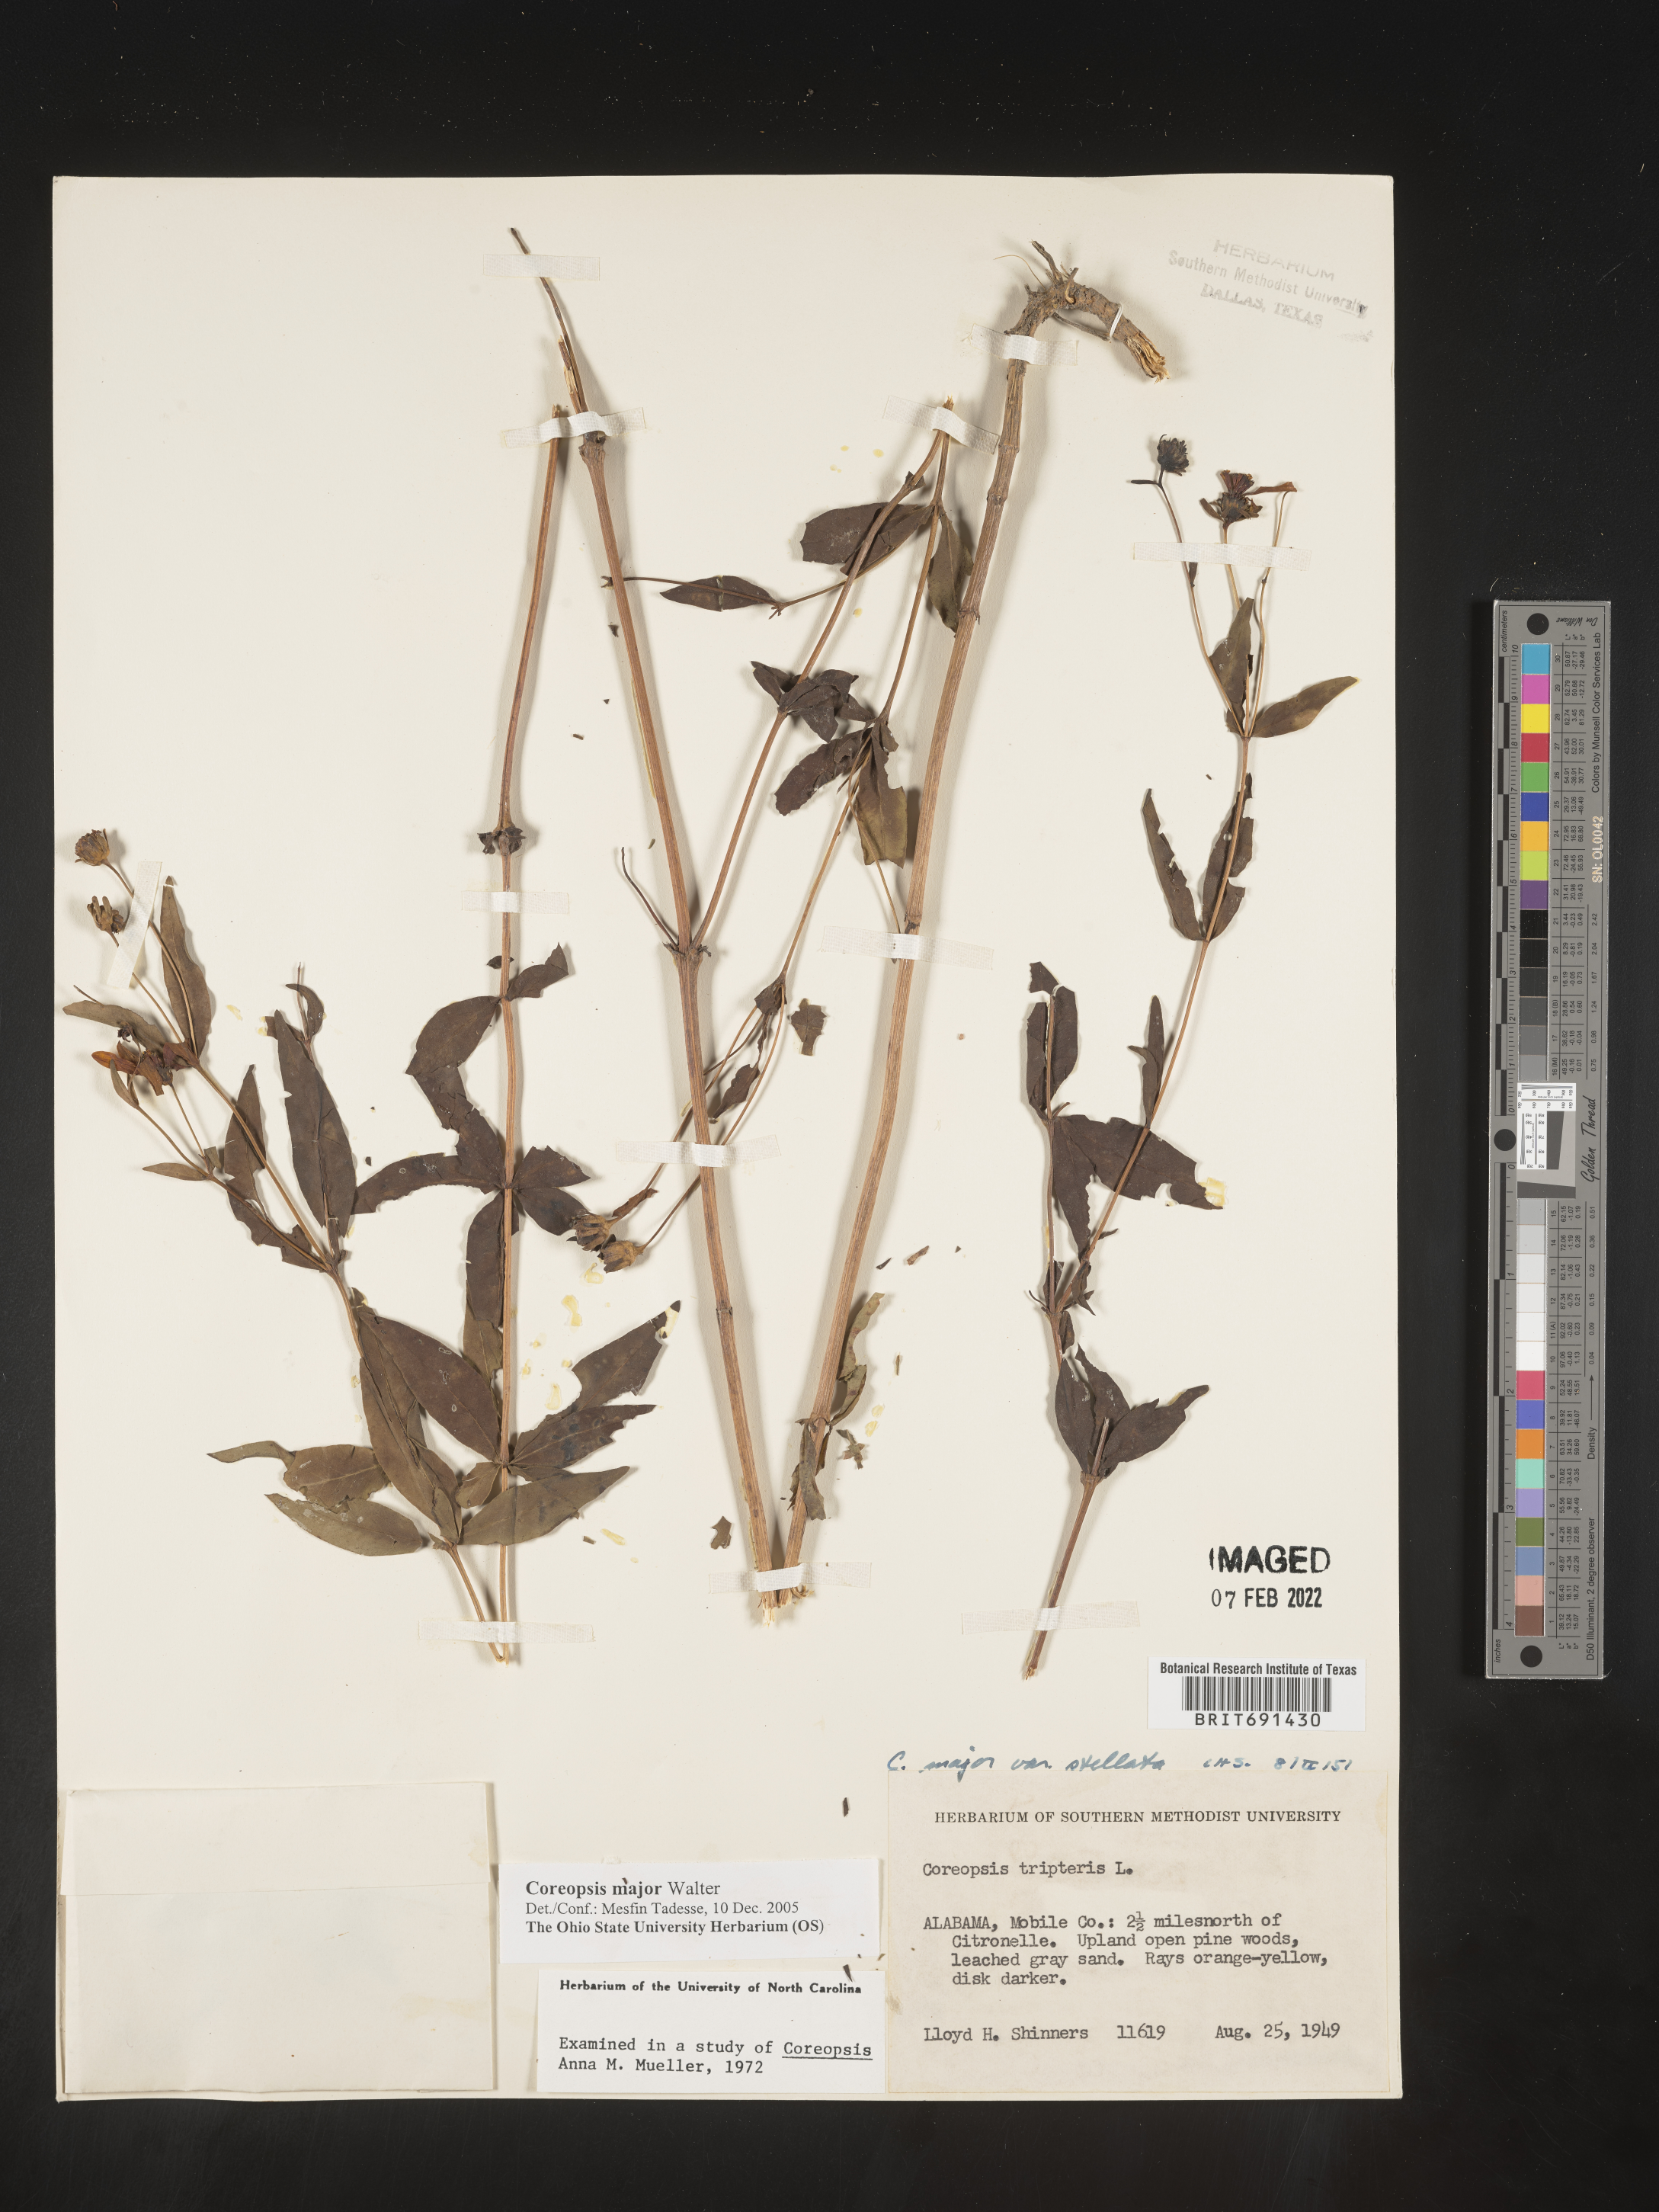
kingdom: Plantae
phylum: Tracheophyta
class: Magnoliopsida
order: Asterales
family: Asteraceae
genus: Coreopsis
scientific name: Coreopsis major
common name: Forest tickseed
